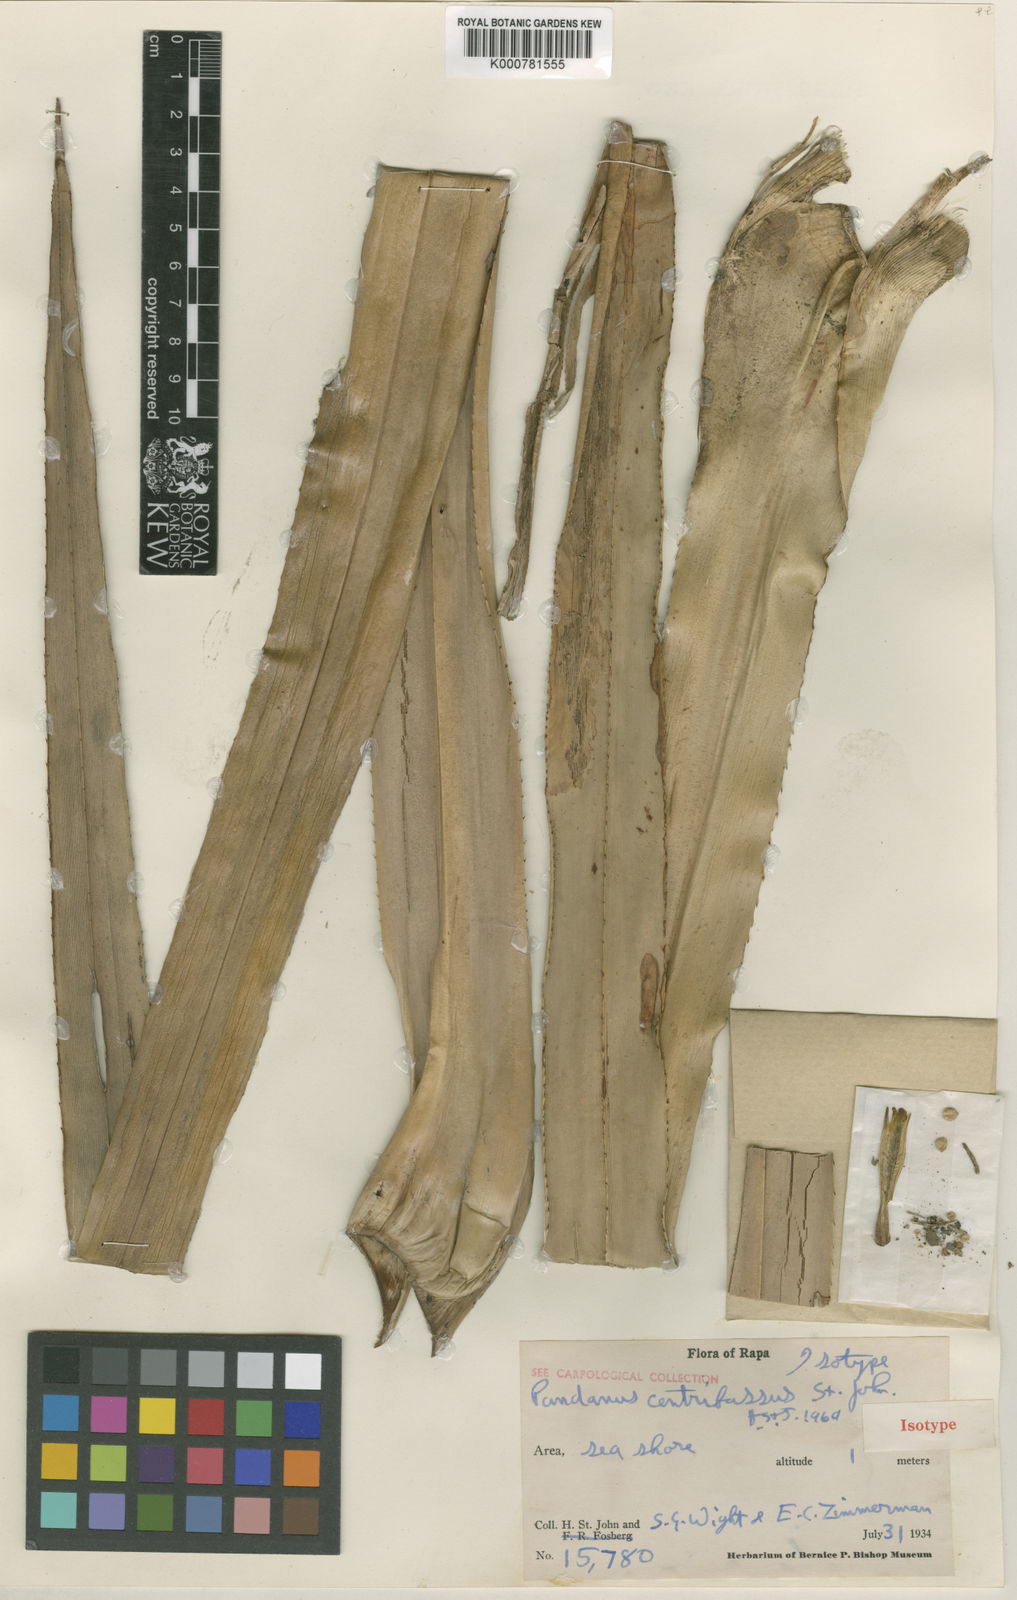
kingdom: Plantae
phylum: Tracheophyta
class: Liliopsida
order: Pandanales
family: Pandanaceae
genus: Pandanus
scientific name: Pandanus
